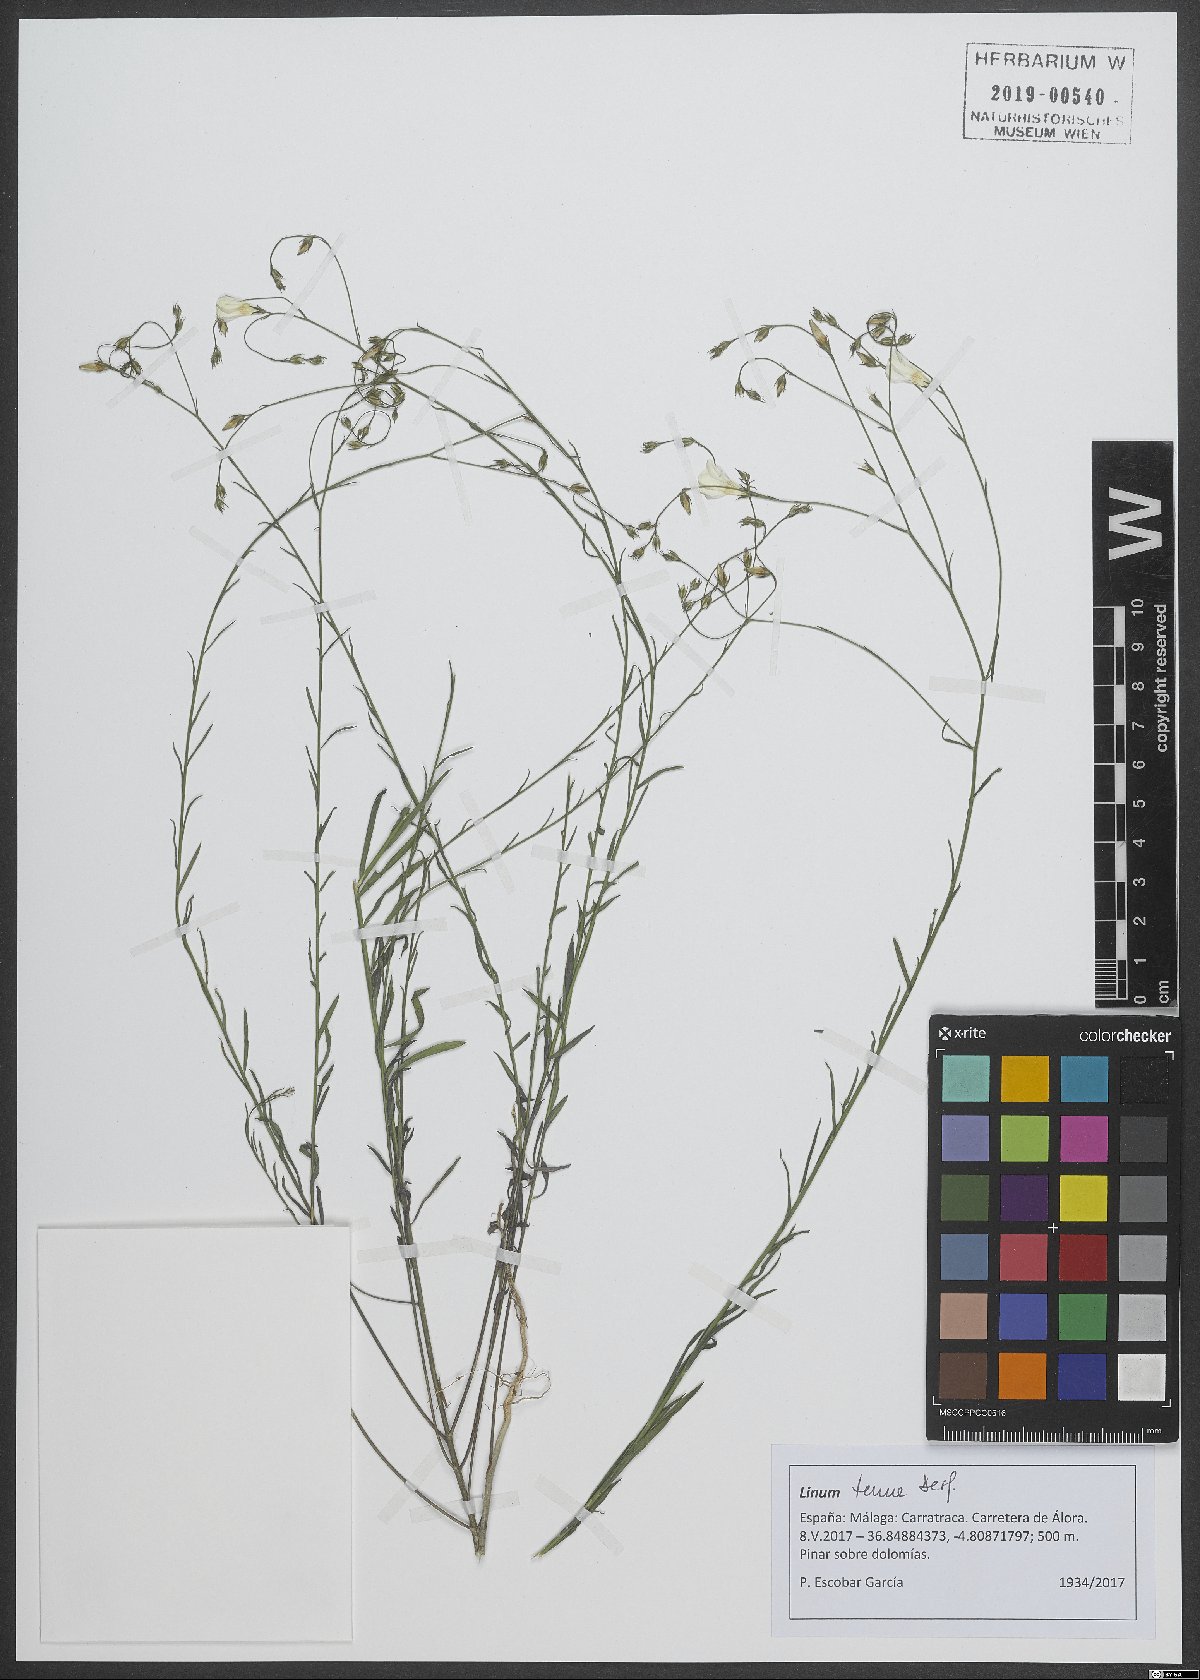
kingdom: Plantae
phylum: Tracheophyta
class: Magnoliopsida
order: Malpighiales
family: Linaceae
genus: Linum
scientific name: Linum tenue
